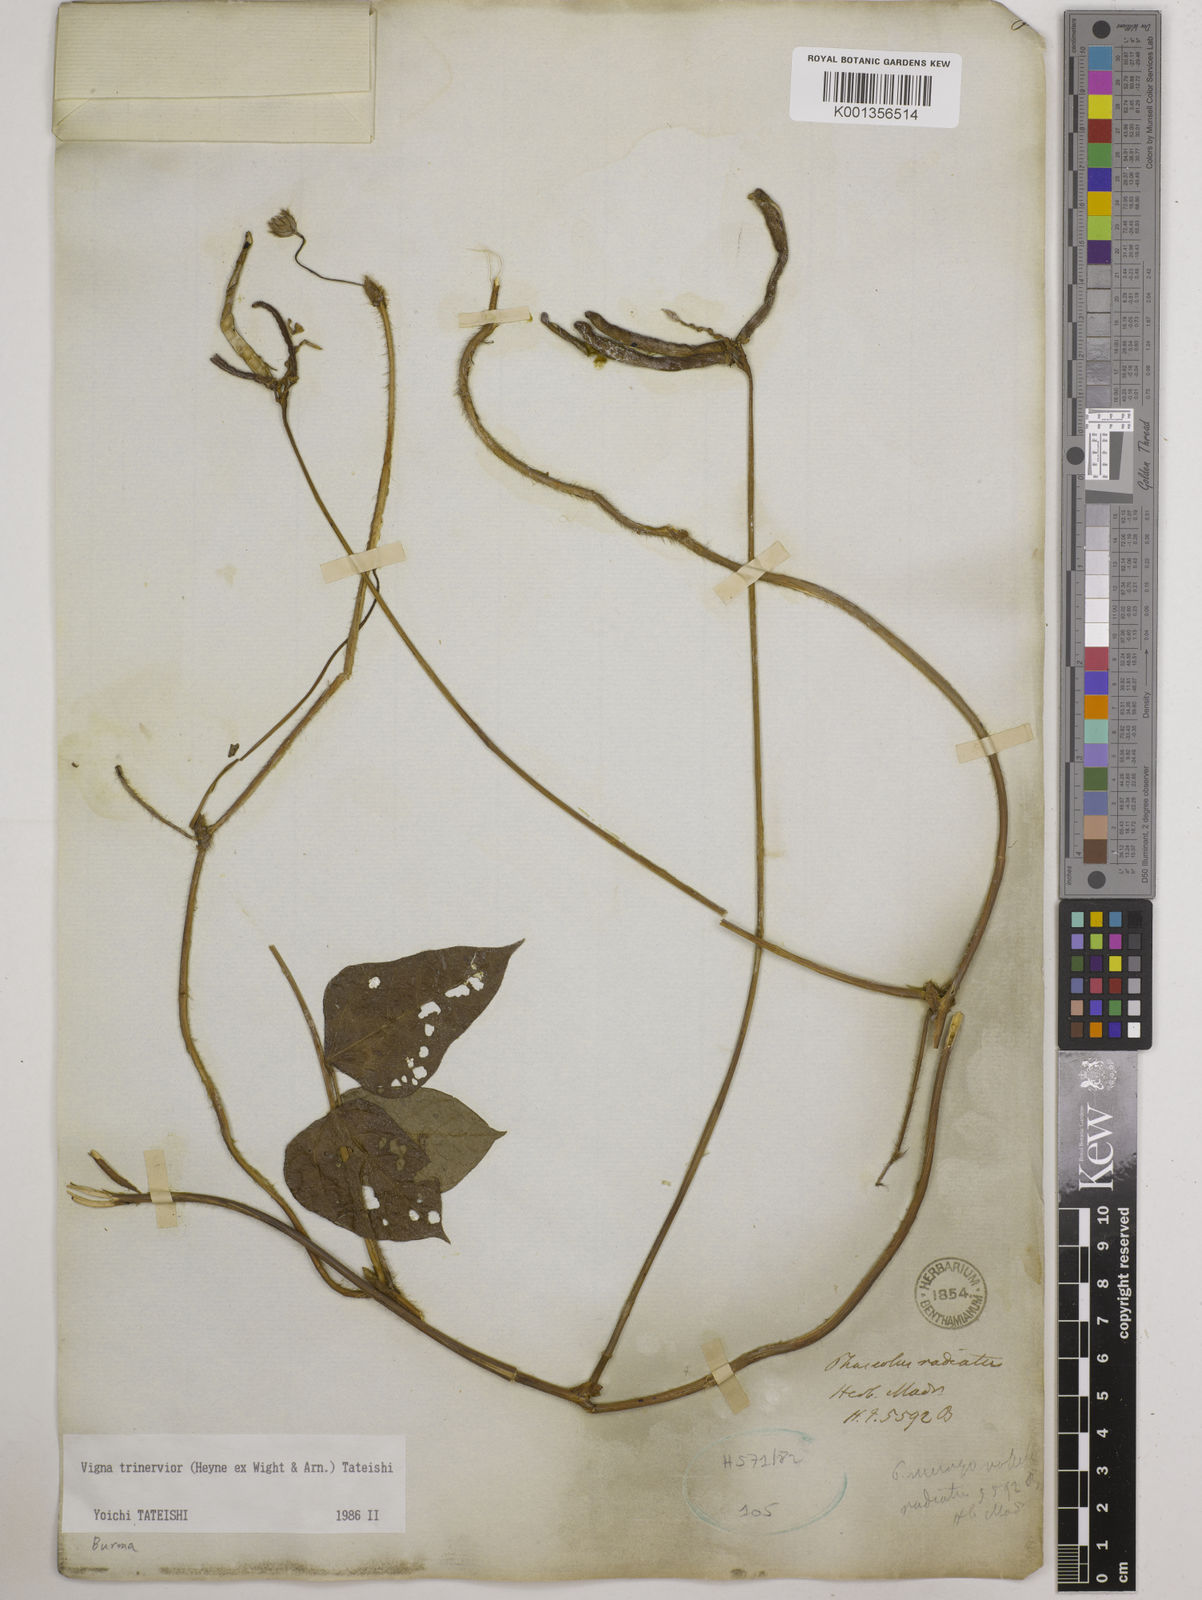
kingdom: Plantae
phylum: Tracheophyta
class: Magnoliopsida
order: Fabales
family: Fabaceae
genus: Vigna
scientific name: Vigna radiata
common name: Mung-bean
